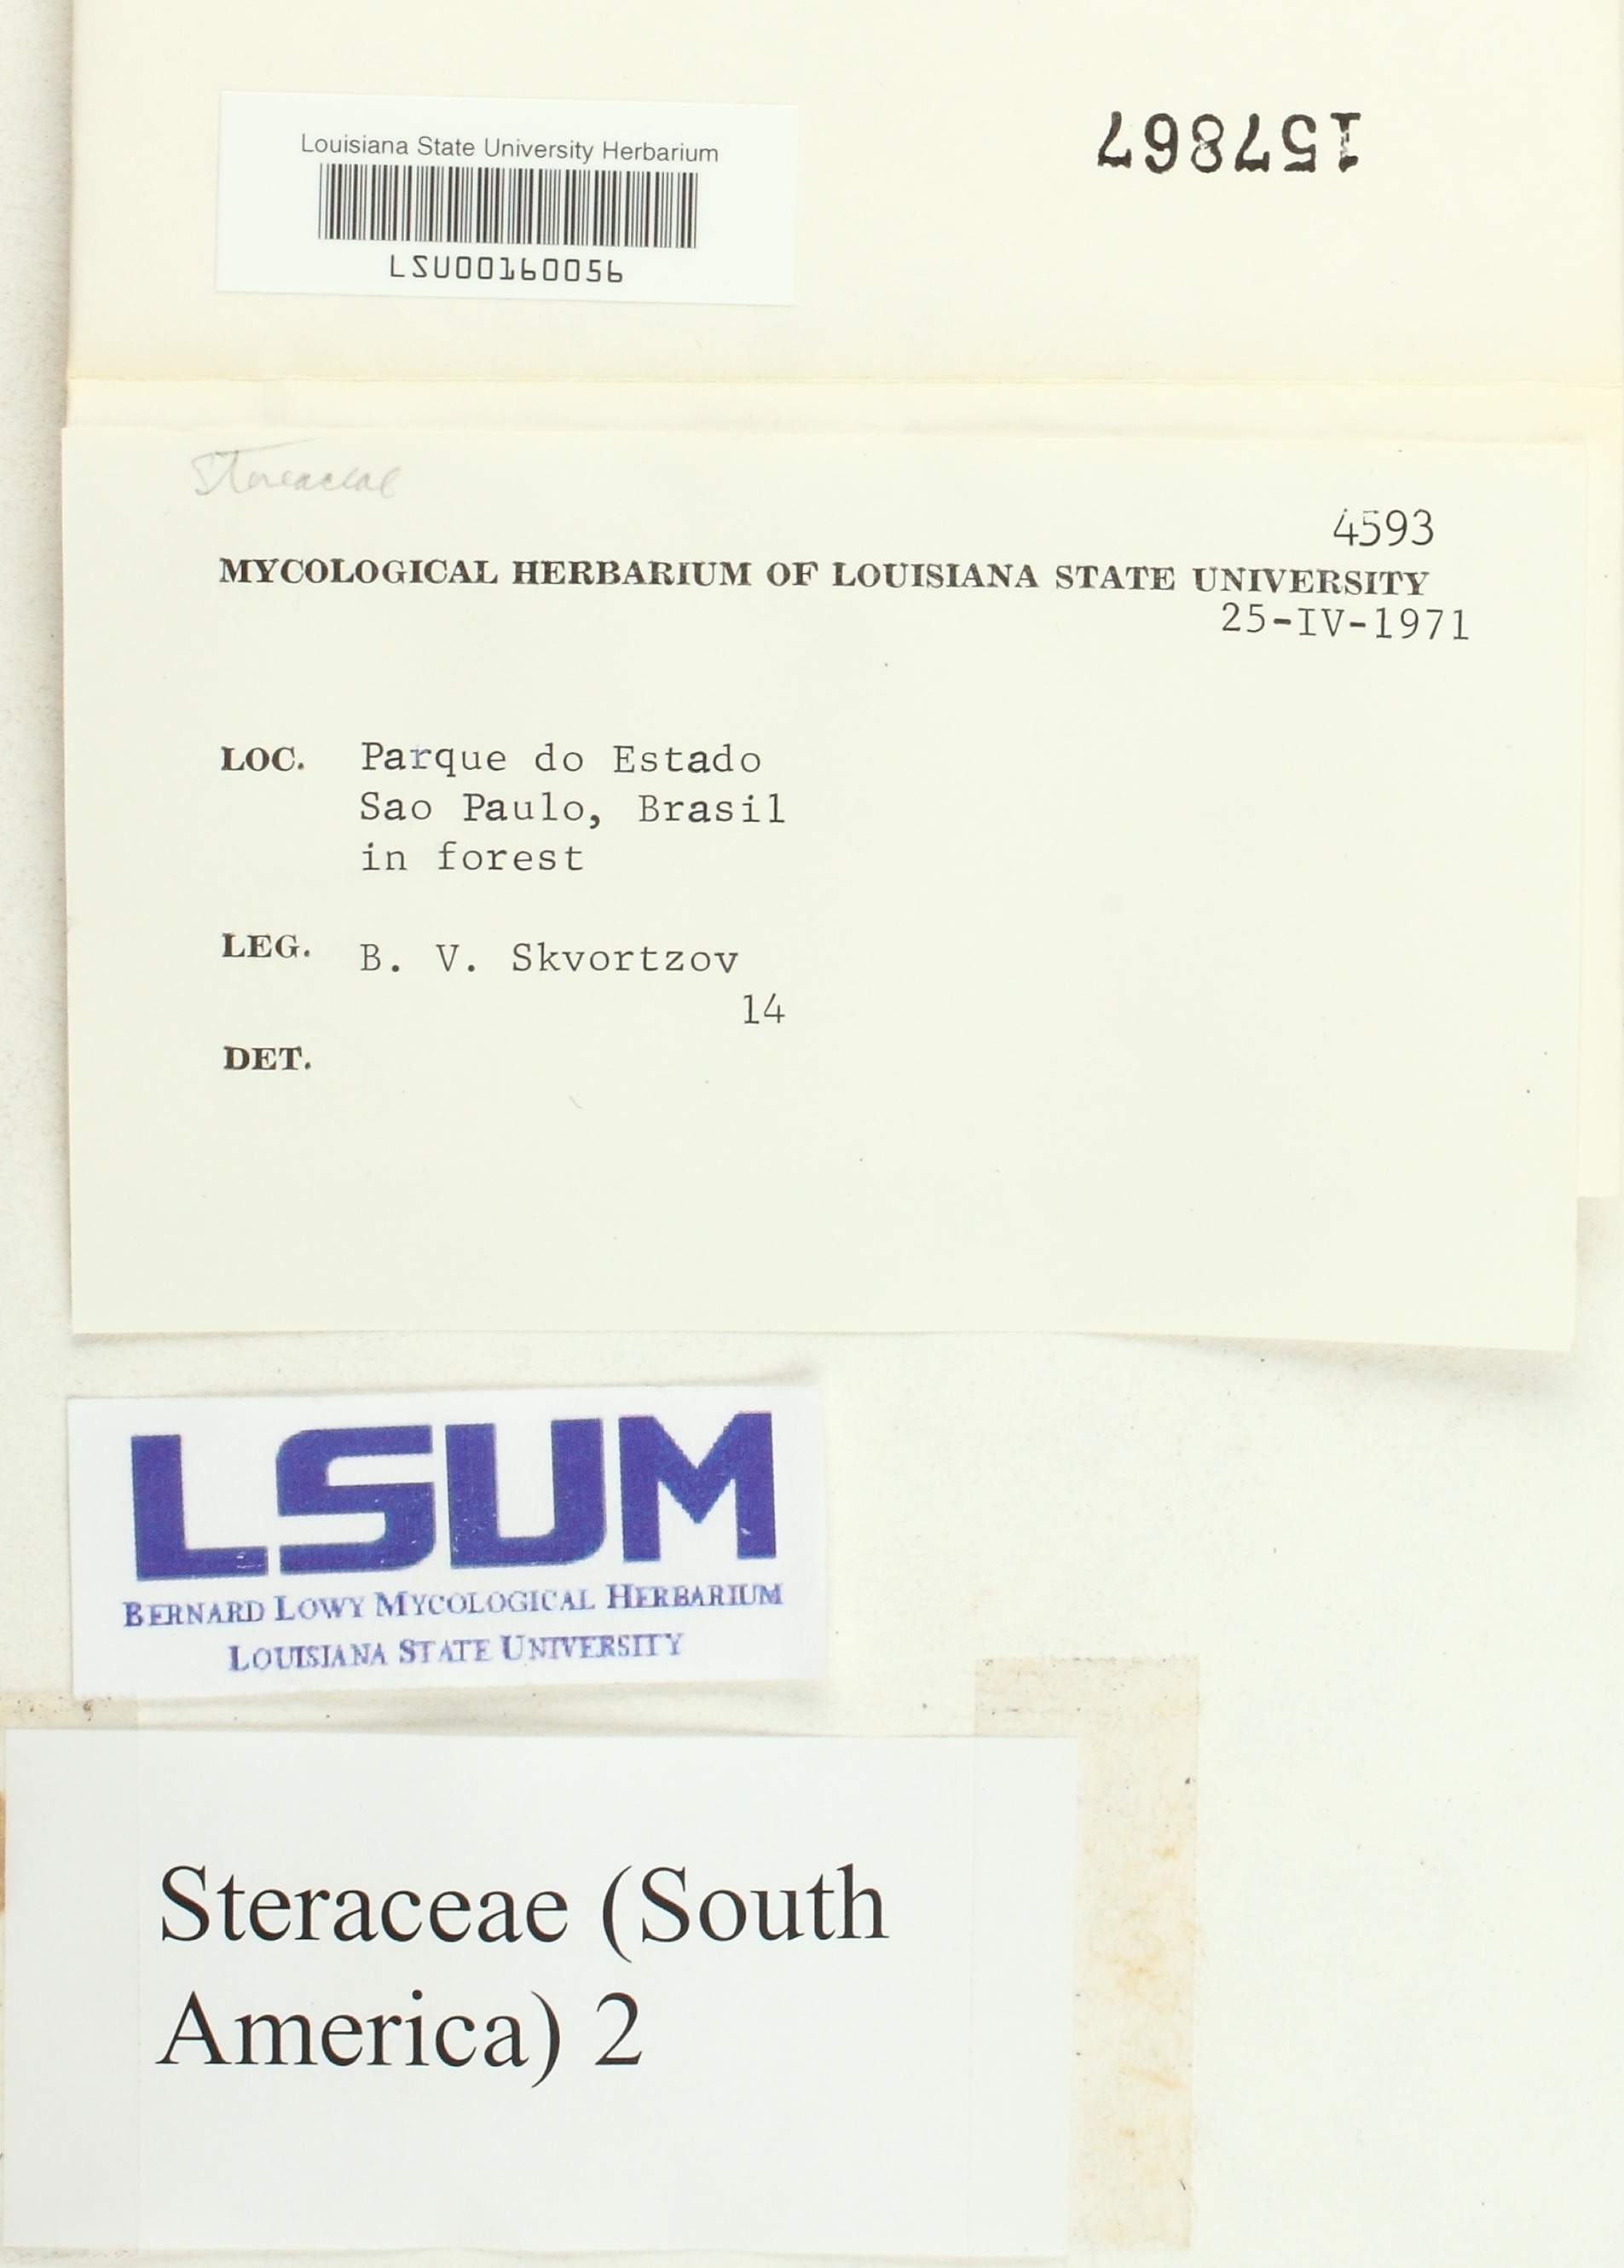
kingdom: Fungi
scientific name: Fungi
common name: Fungi
